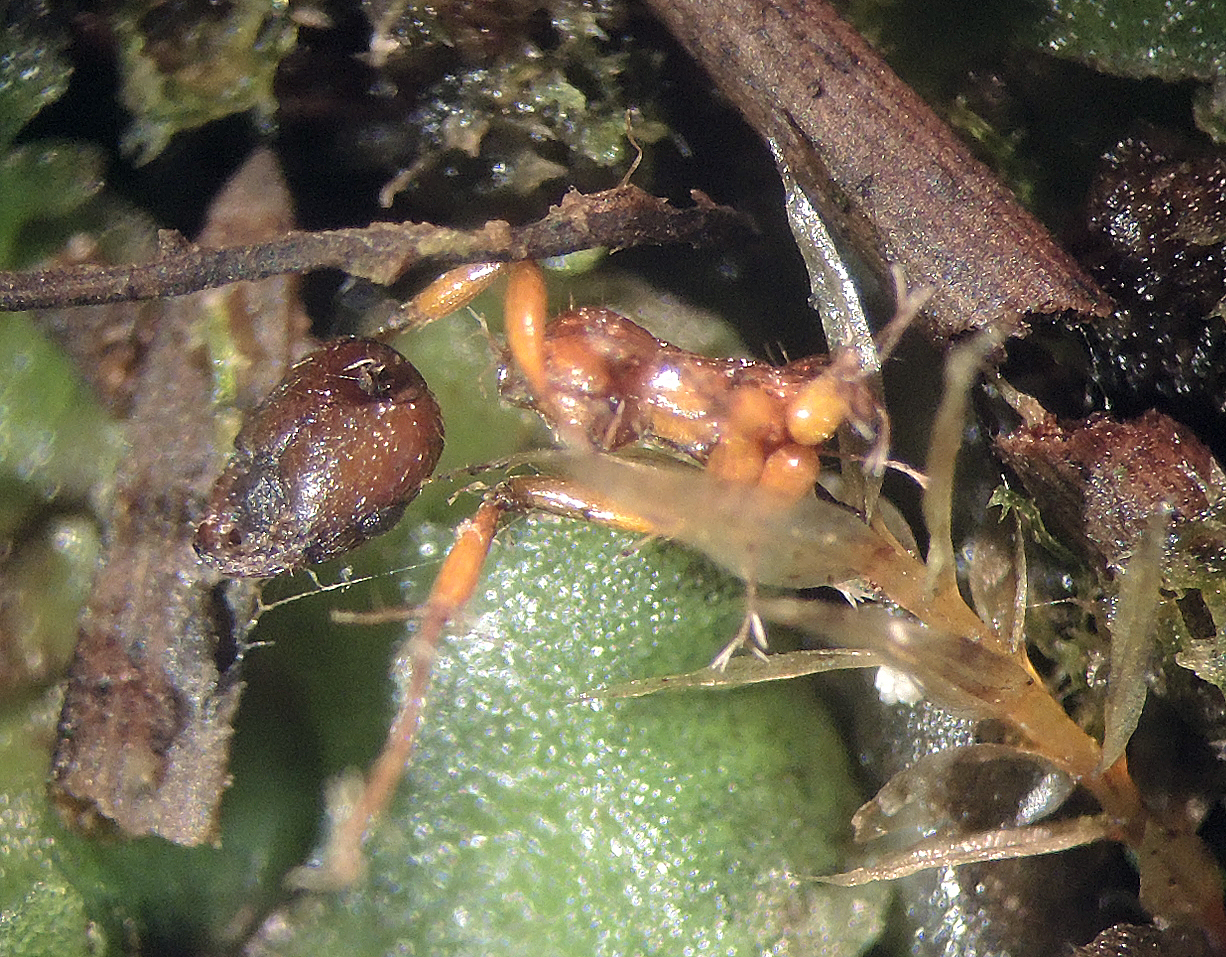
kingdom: Fungi
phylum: Ascomycota
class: Sordariomycetes
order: Hypocreales
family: Ophiocordycipitaceae
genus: Hirsutella
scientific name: Hirsutella
